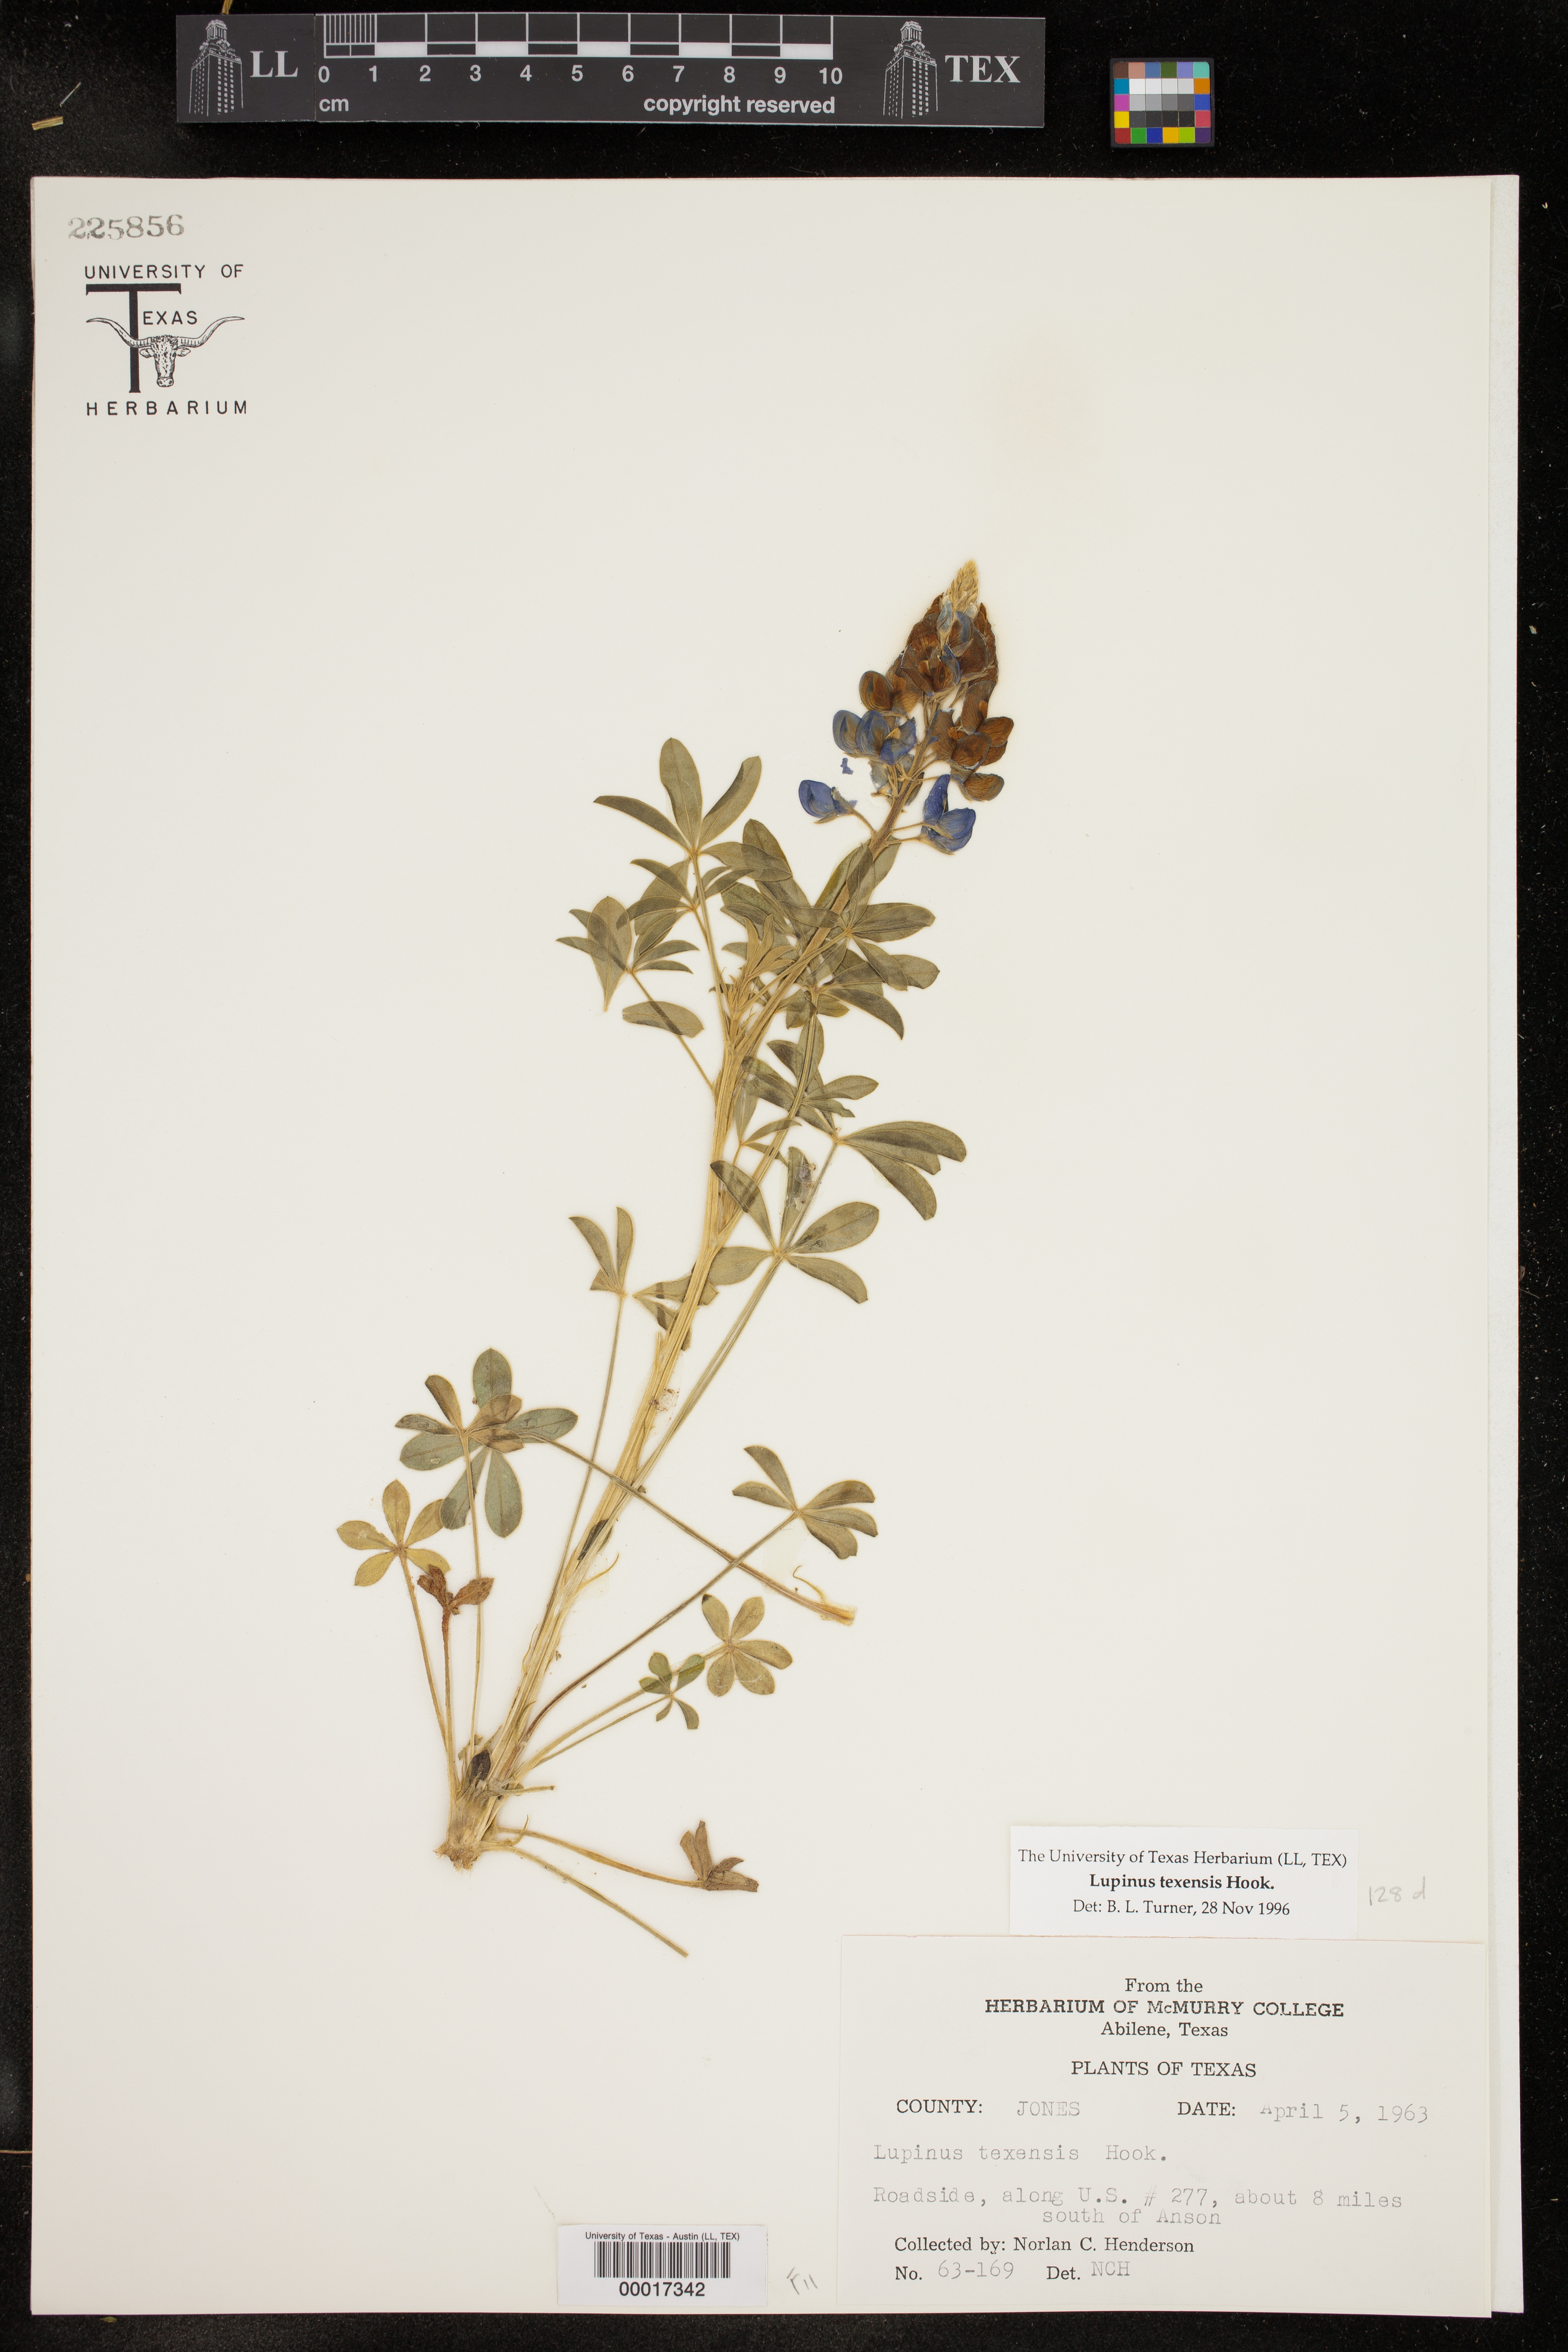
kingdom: Plantae
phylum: Tracheophyta
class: Magnoliopsida
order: Fabales
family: Fabaceae
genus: Lupinus
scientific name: Lupinus texensis
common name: Texas bluebonnet
